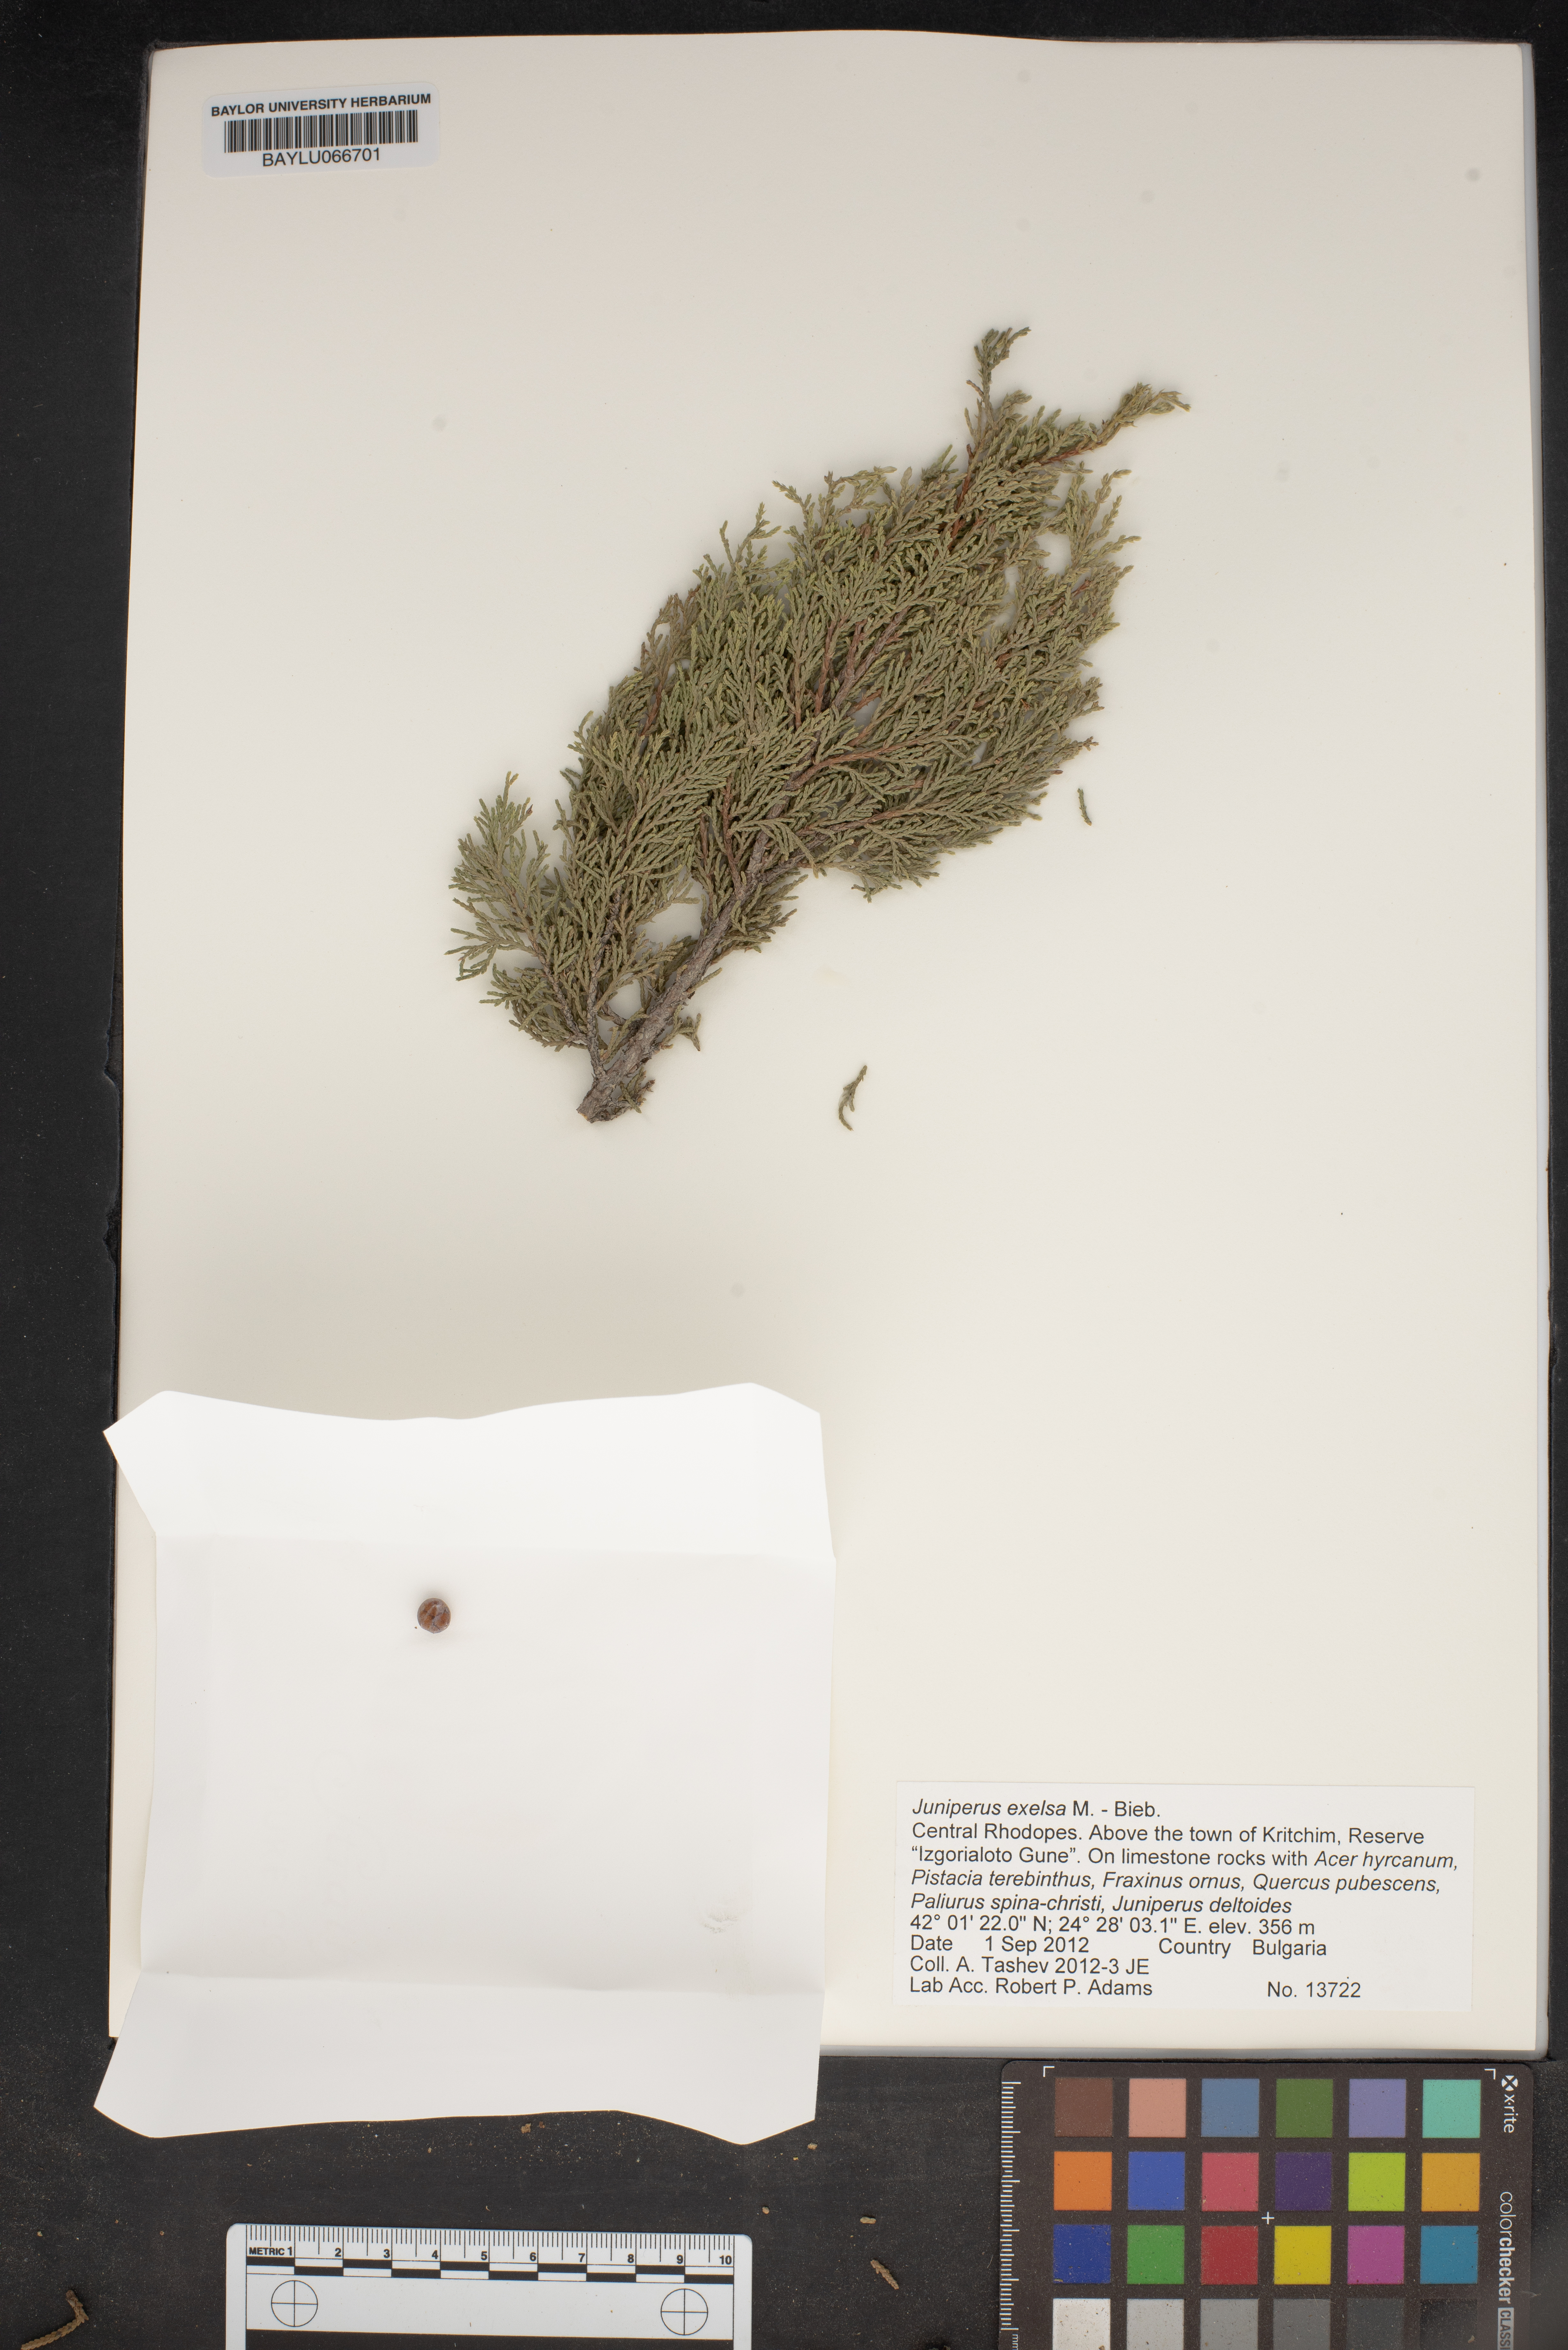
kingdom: Plantae
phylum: Tracheophyta
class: Pinopsida
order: Pinales
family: Cupressaceae
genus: Juniperus
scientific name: Juniperus excelsa
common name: Crimean juniper
